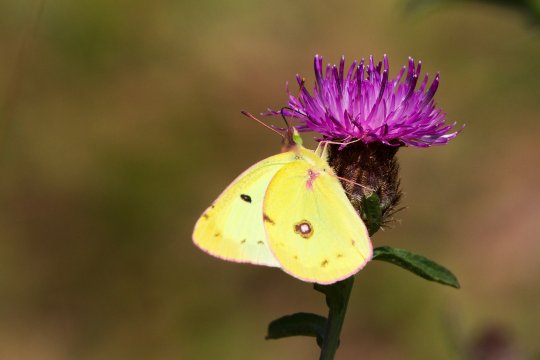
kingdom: Animalia
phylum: Arthropoda
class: Insecta
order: Lepidoptera
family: Pieridae
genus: Colias
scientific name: Colias philodice
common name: Clouded Sulphur
